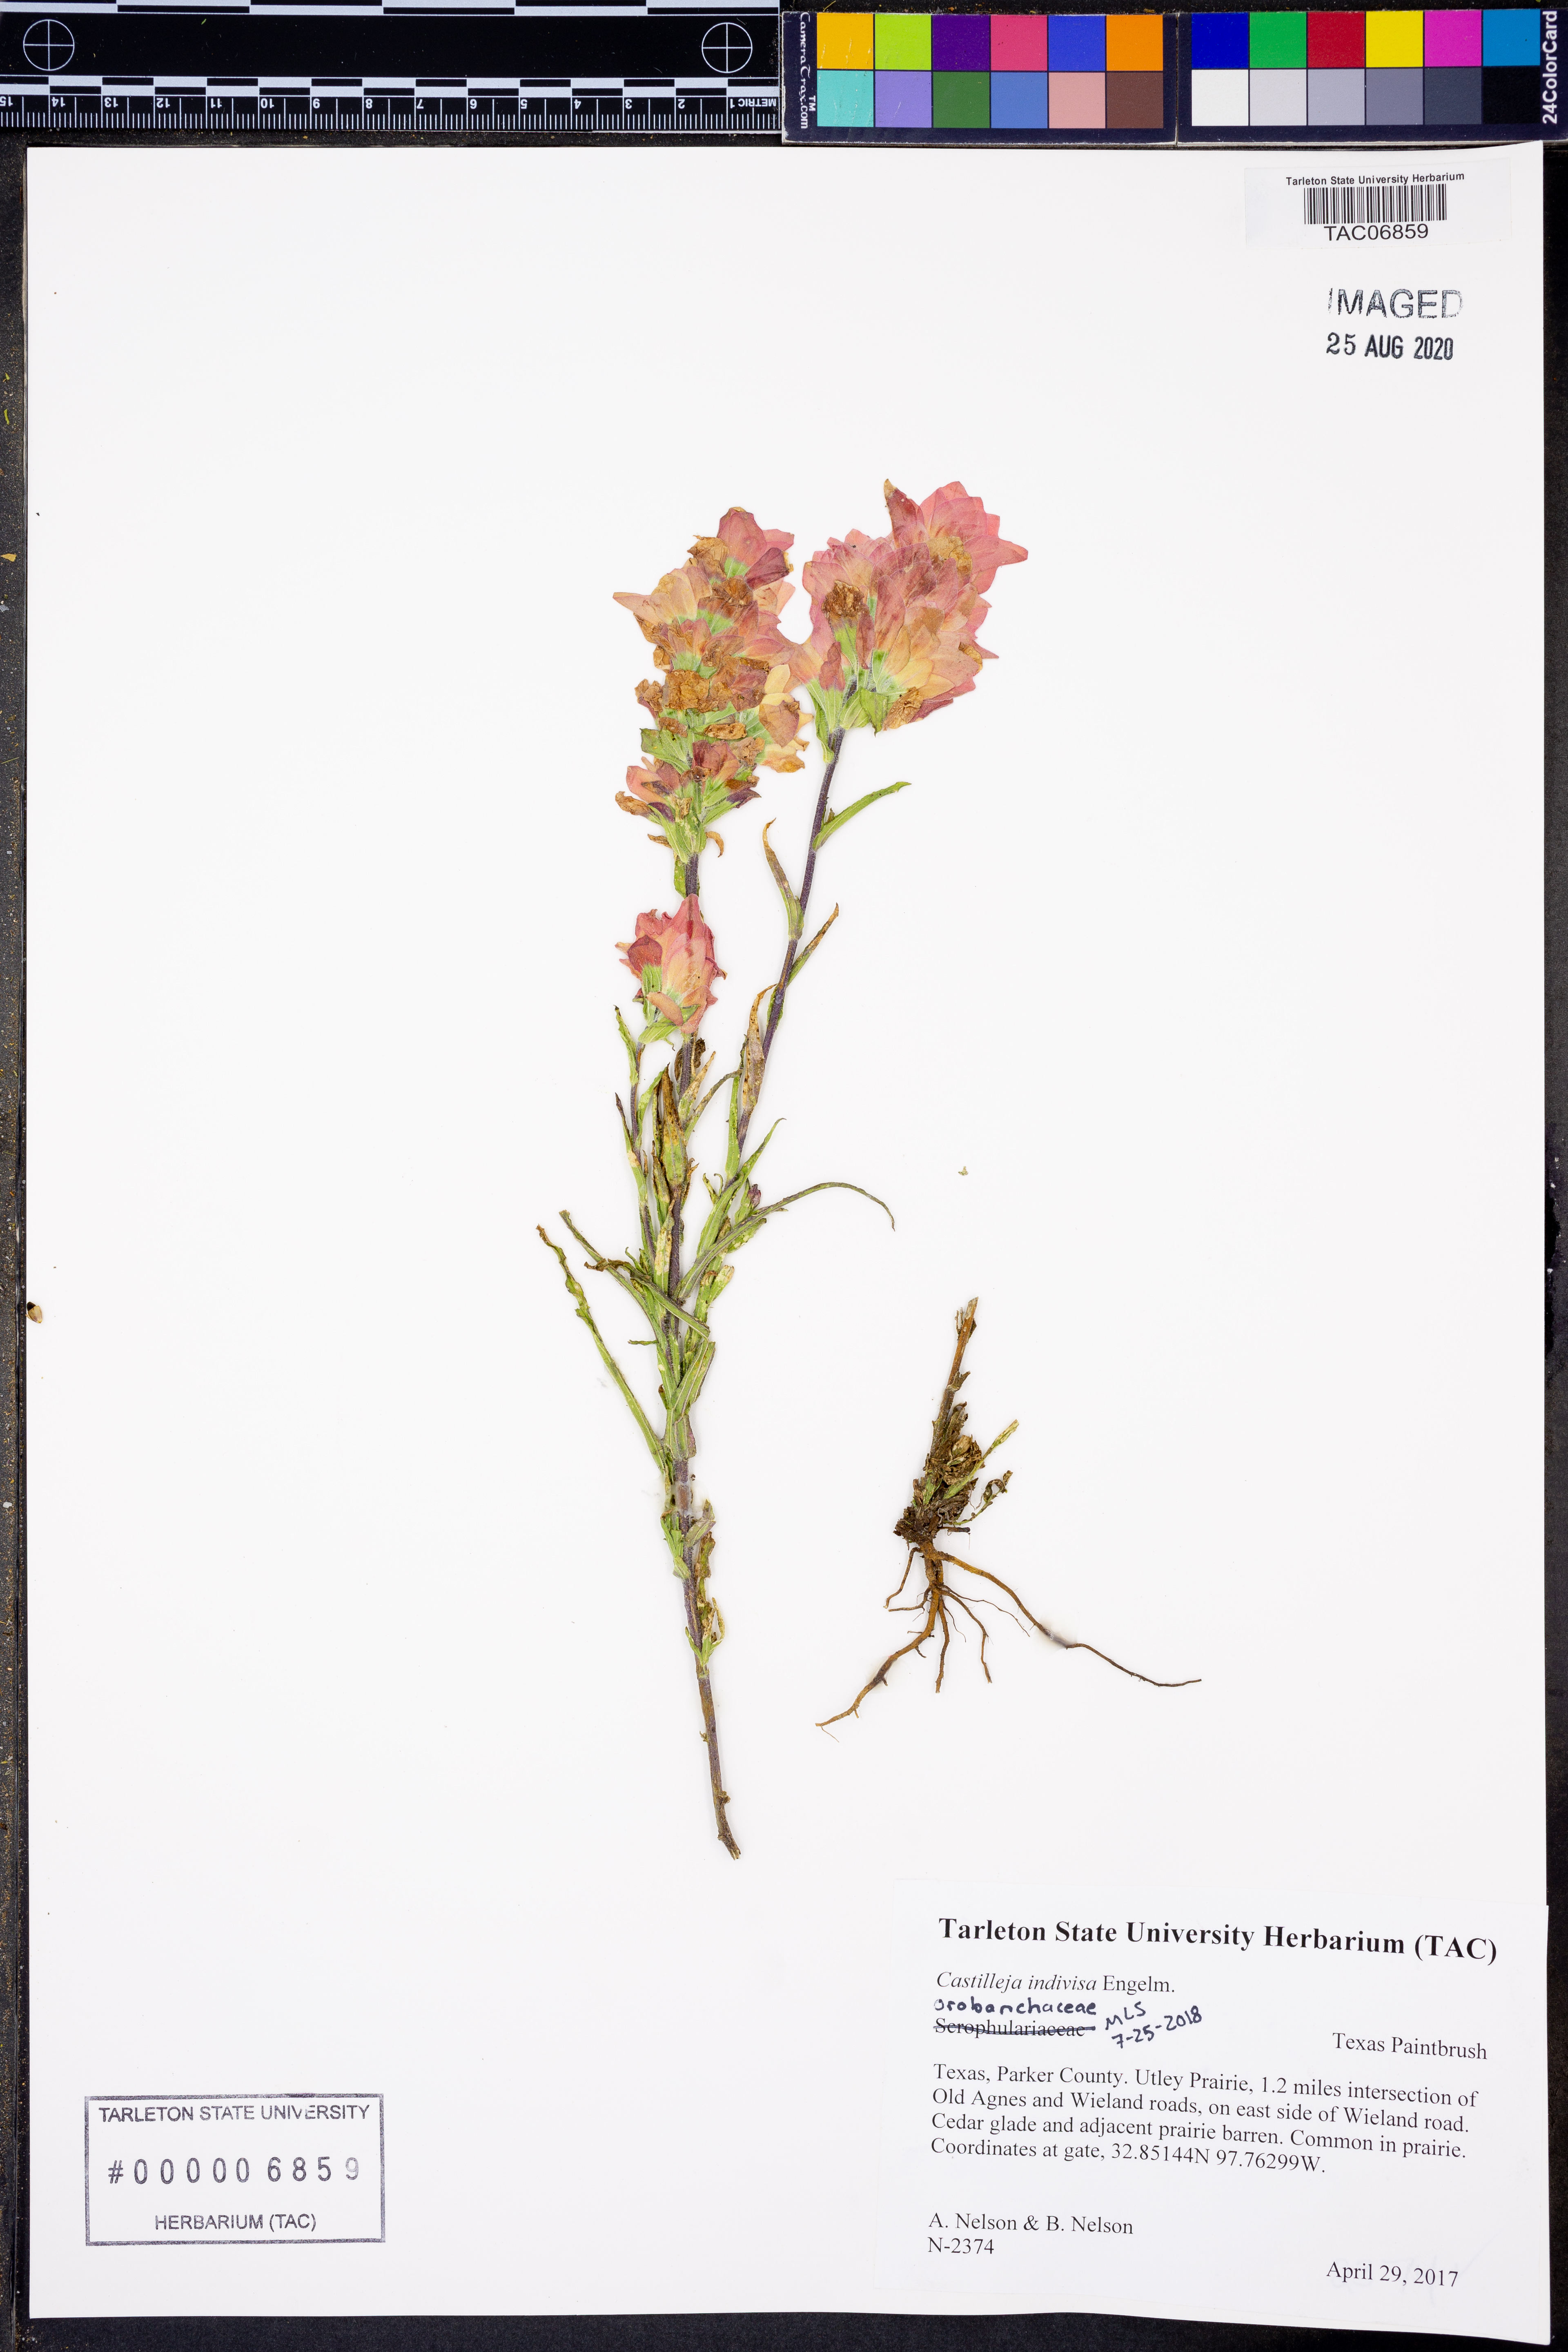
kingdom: Plantae
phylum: Tracheophyta
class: Magnoliopsida
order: Lamiales
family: Orobanchaceae
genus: Castilleja
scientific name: Castilleja indivisa
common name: Texas paintbrush
